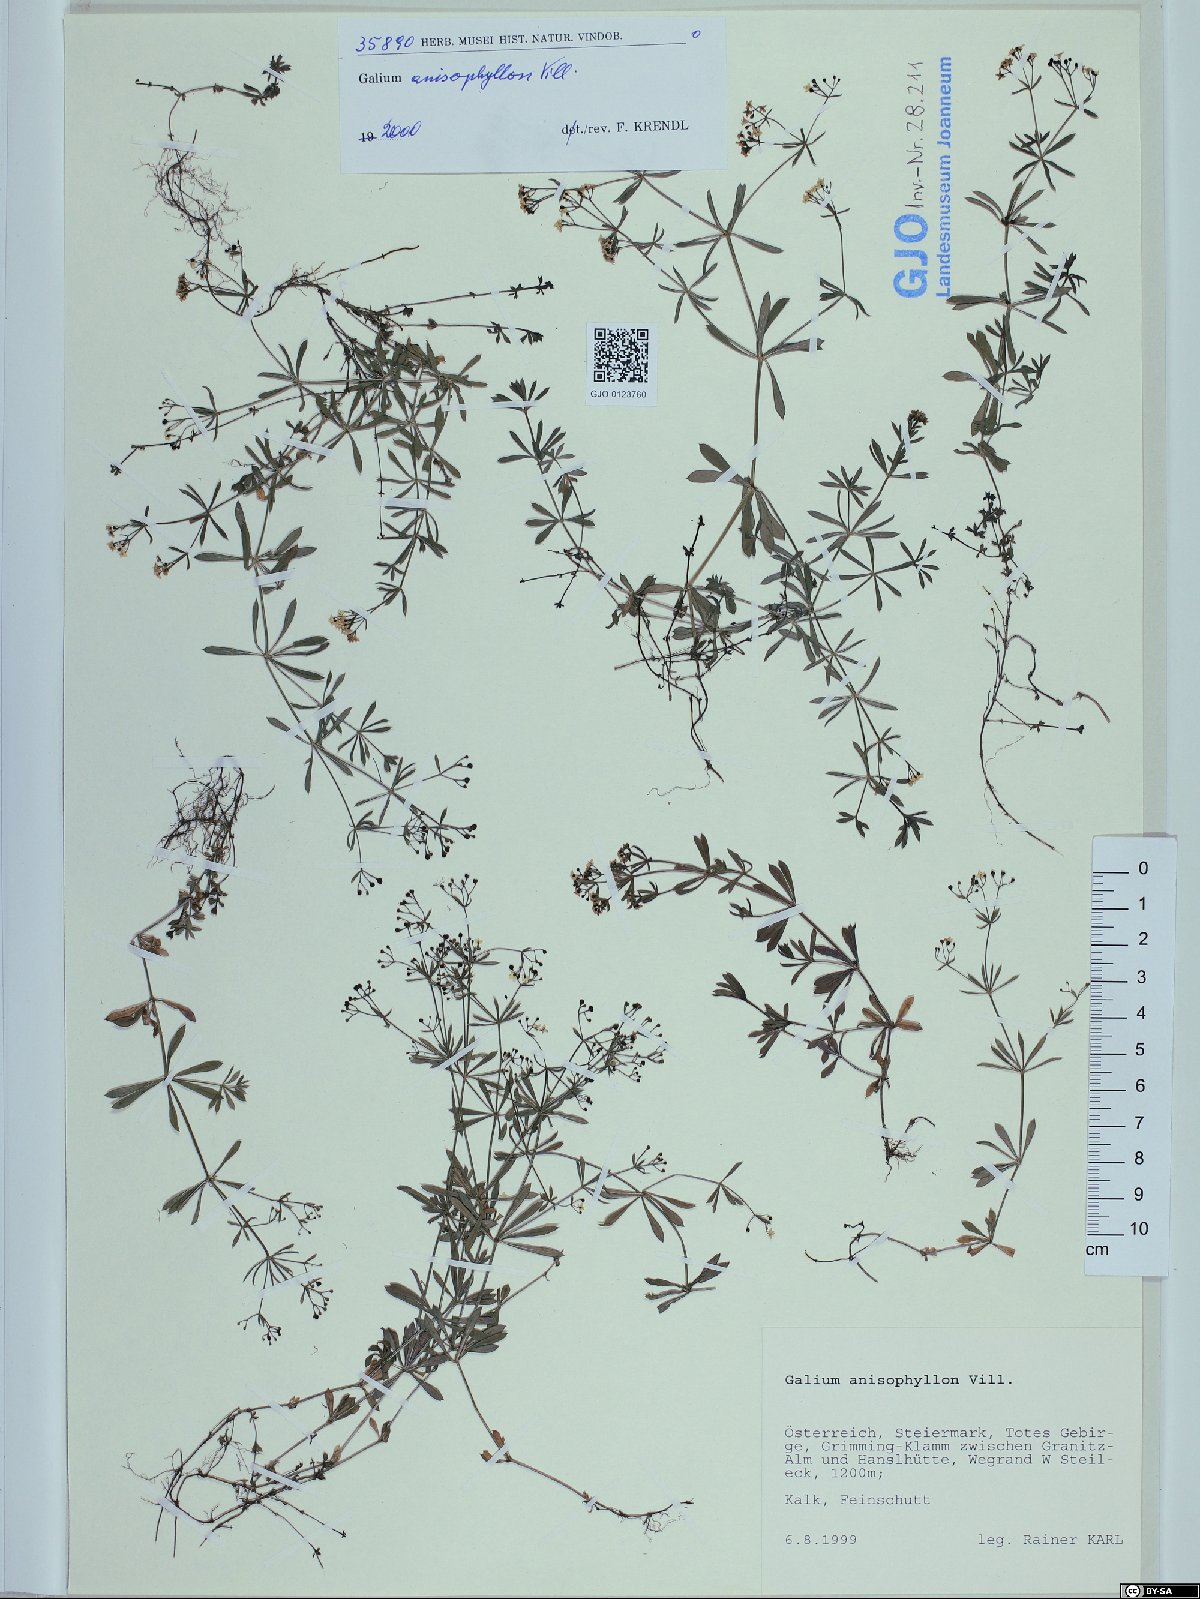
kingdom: Plantae
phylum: Tracheophyta
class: Magnoliopsida
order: Gentianales
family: Rubiaceae
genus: Galium
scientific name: Galium anisophyllon
